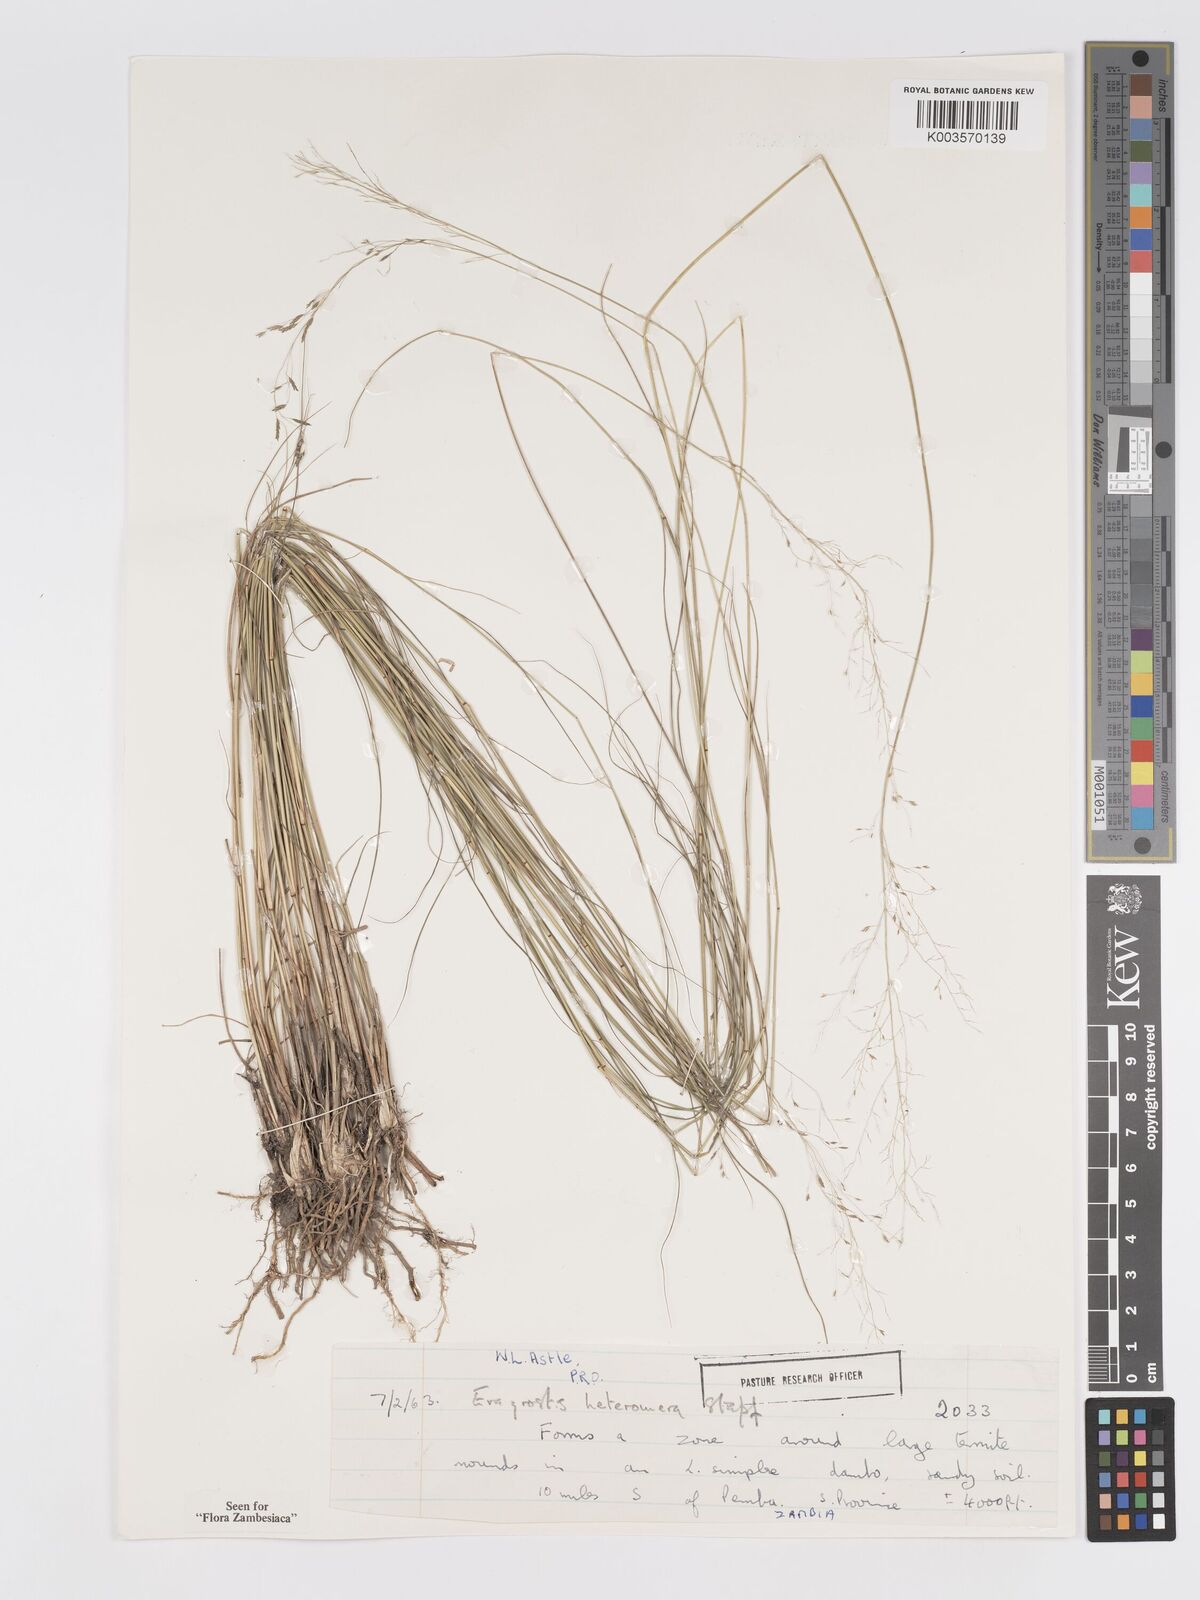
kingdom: Plantae
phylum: Tracheophyta
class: Liliopsida
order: Poales
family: Poaceae
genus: Eragrostis
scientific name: Eragrostis heteromera
